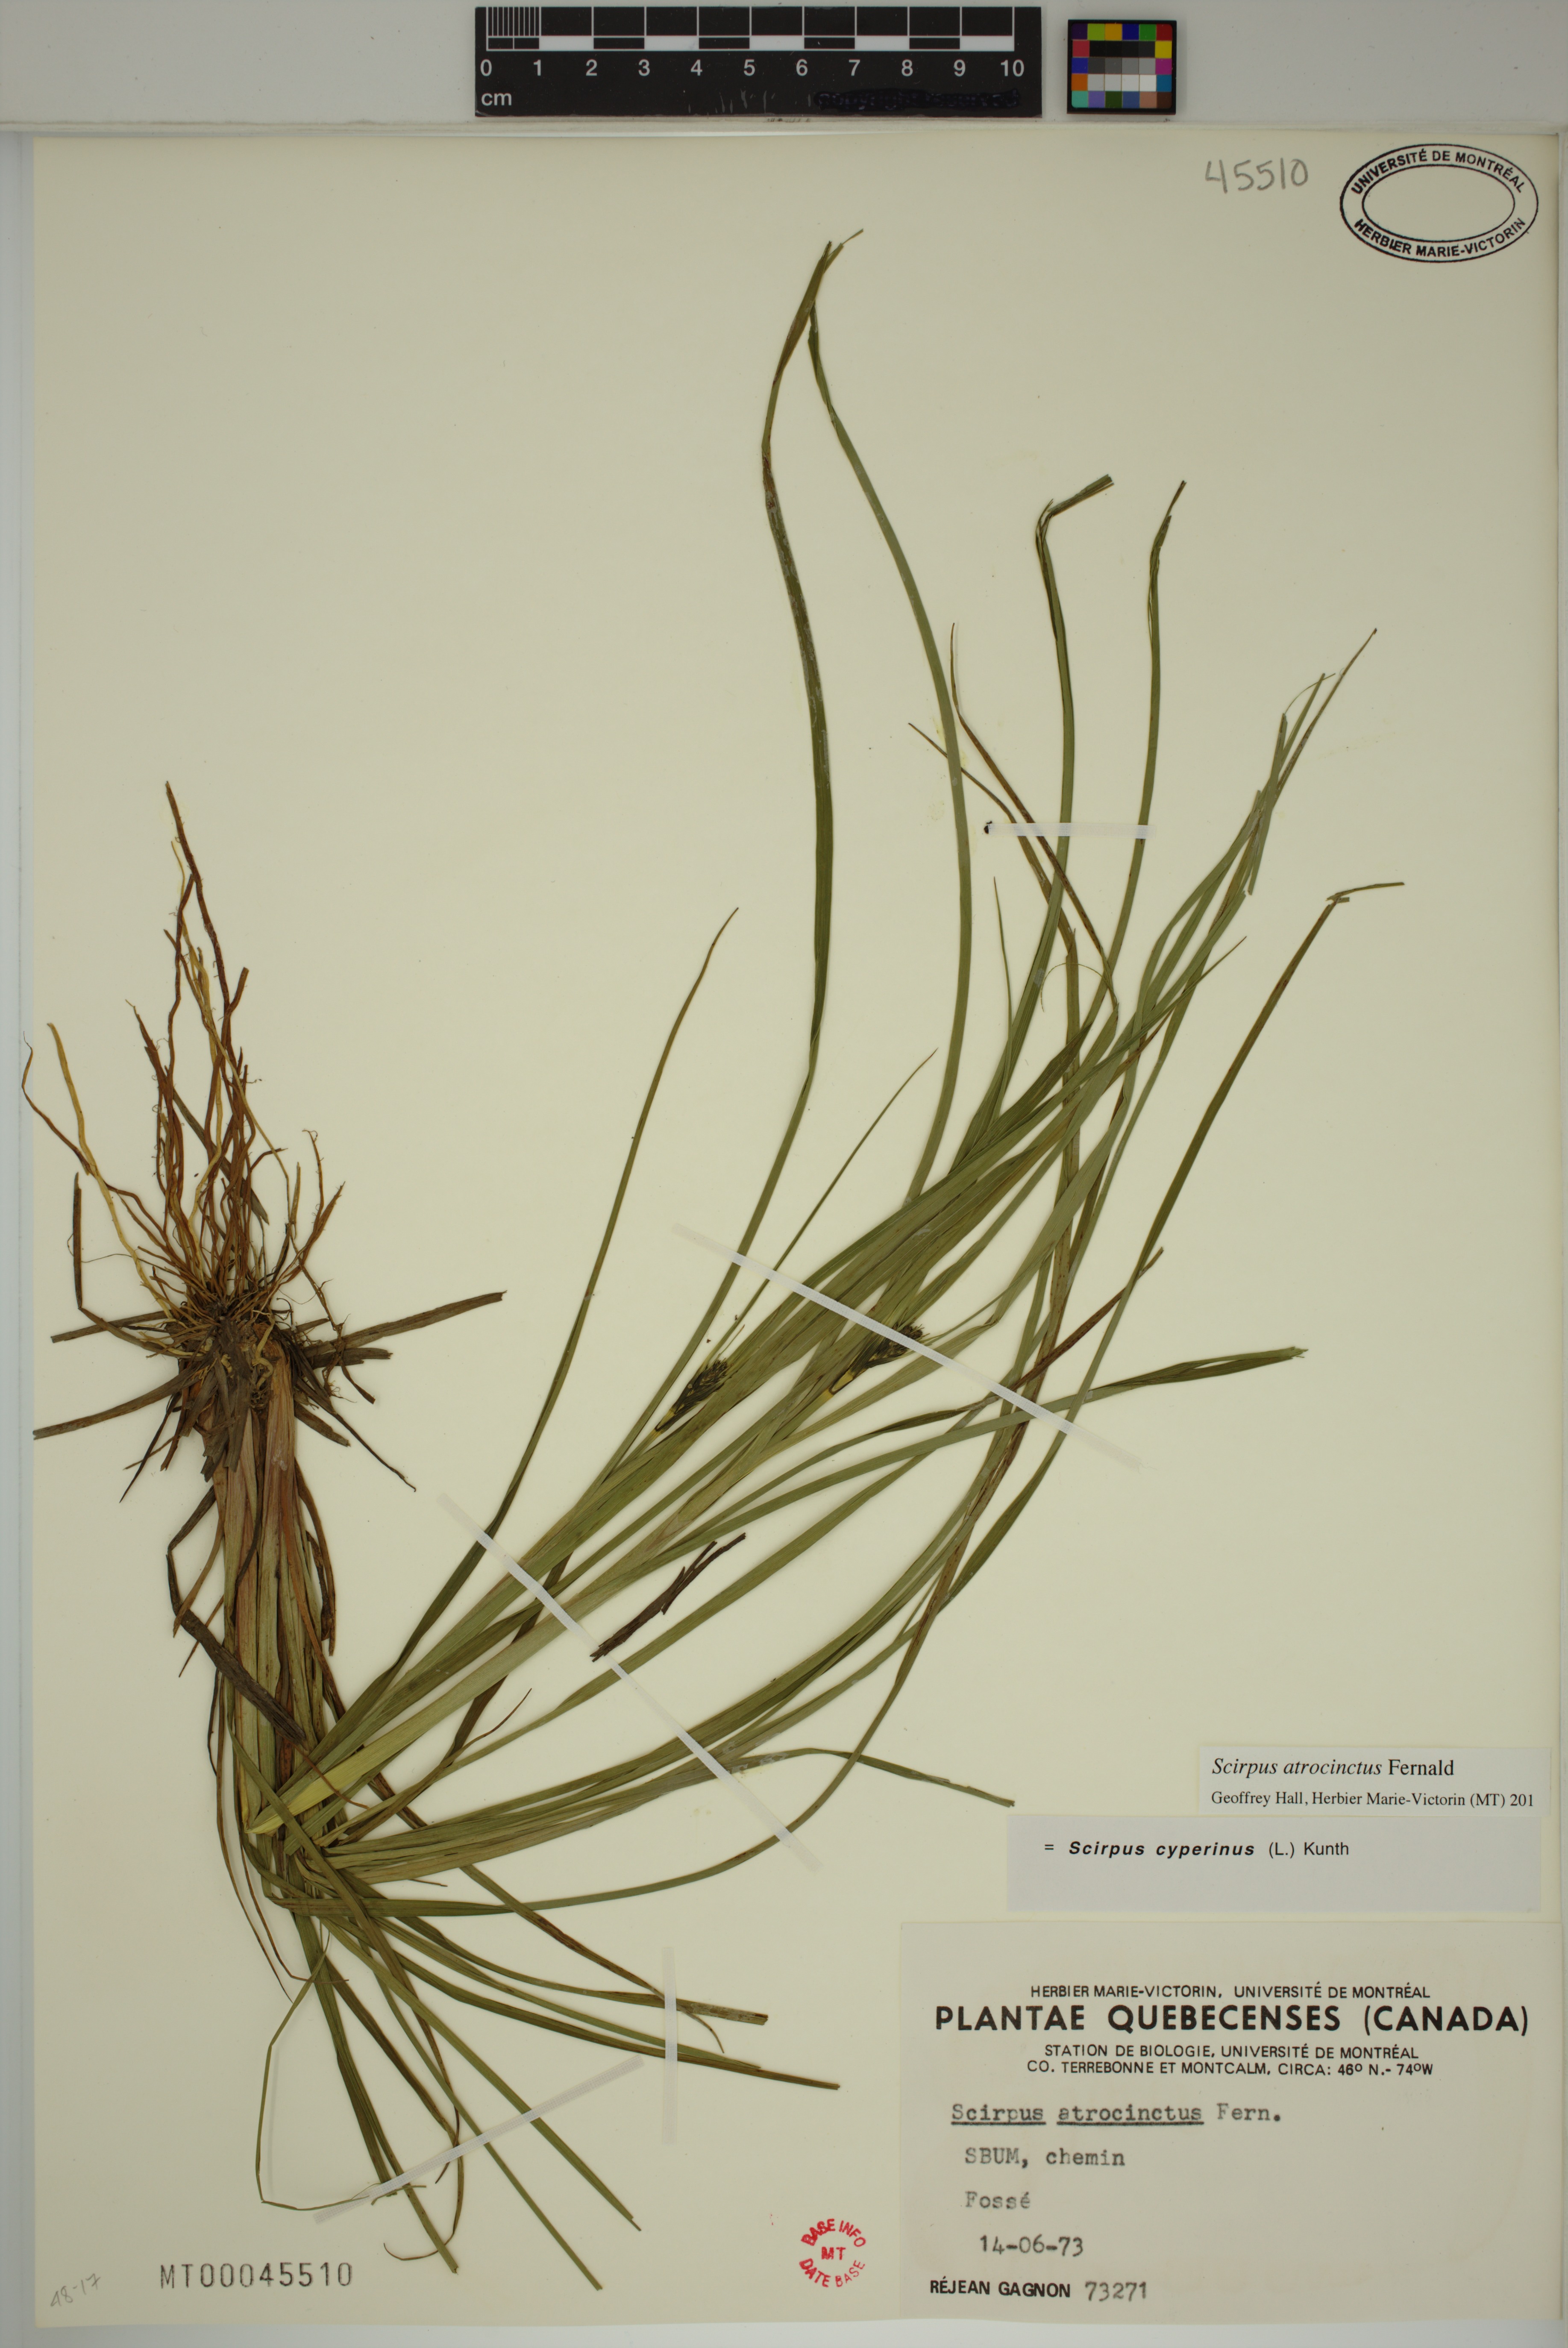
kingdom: Plantae
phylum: Tracheophyta
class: Liliopsida
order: Poales
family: Cyperaceae
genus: Scirpus
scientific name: Scirpus atrocinctus
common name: Black-girdled bulrush
